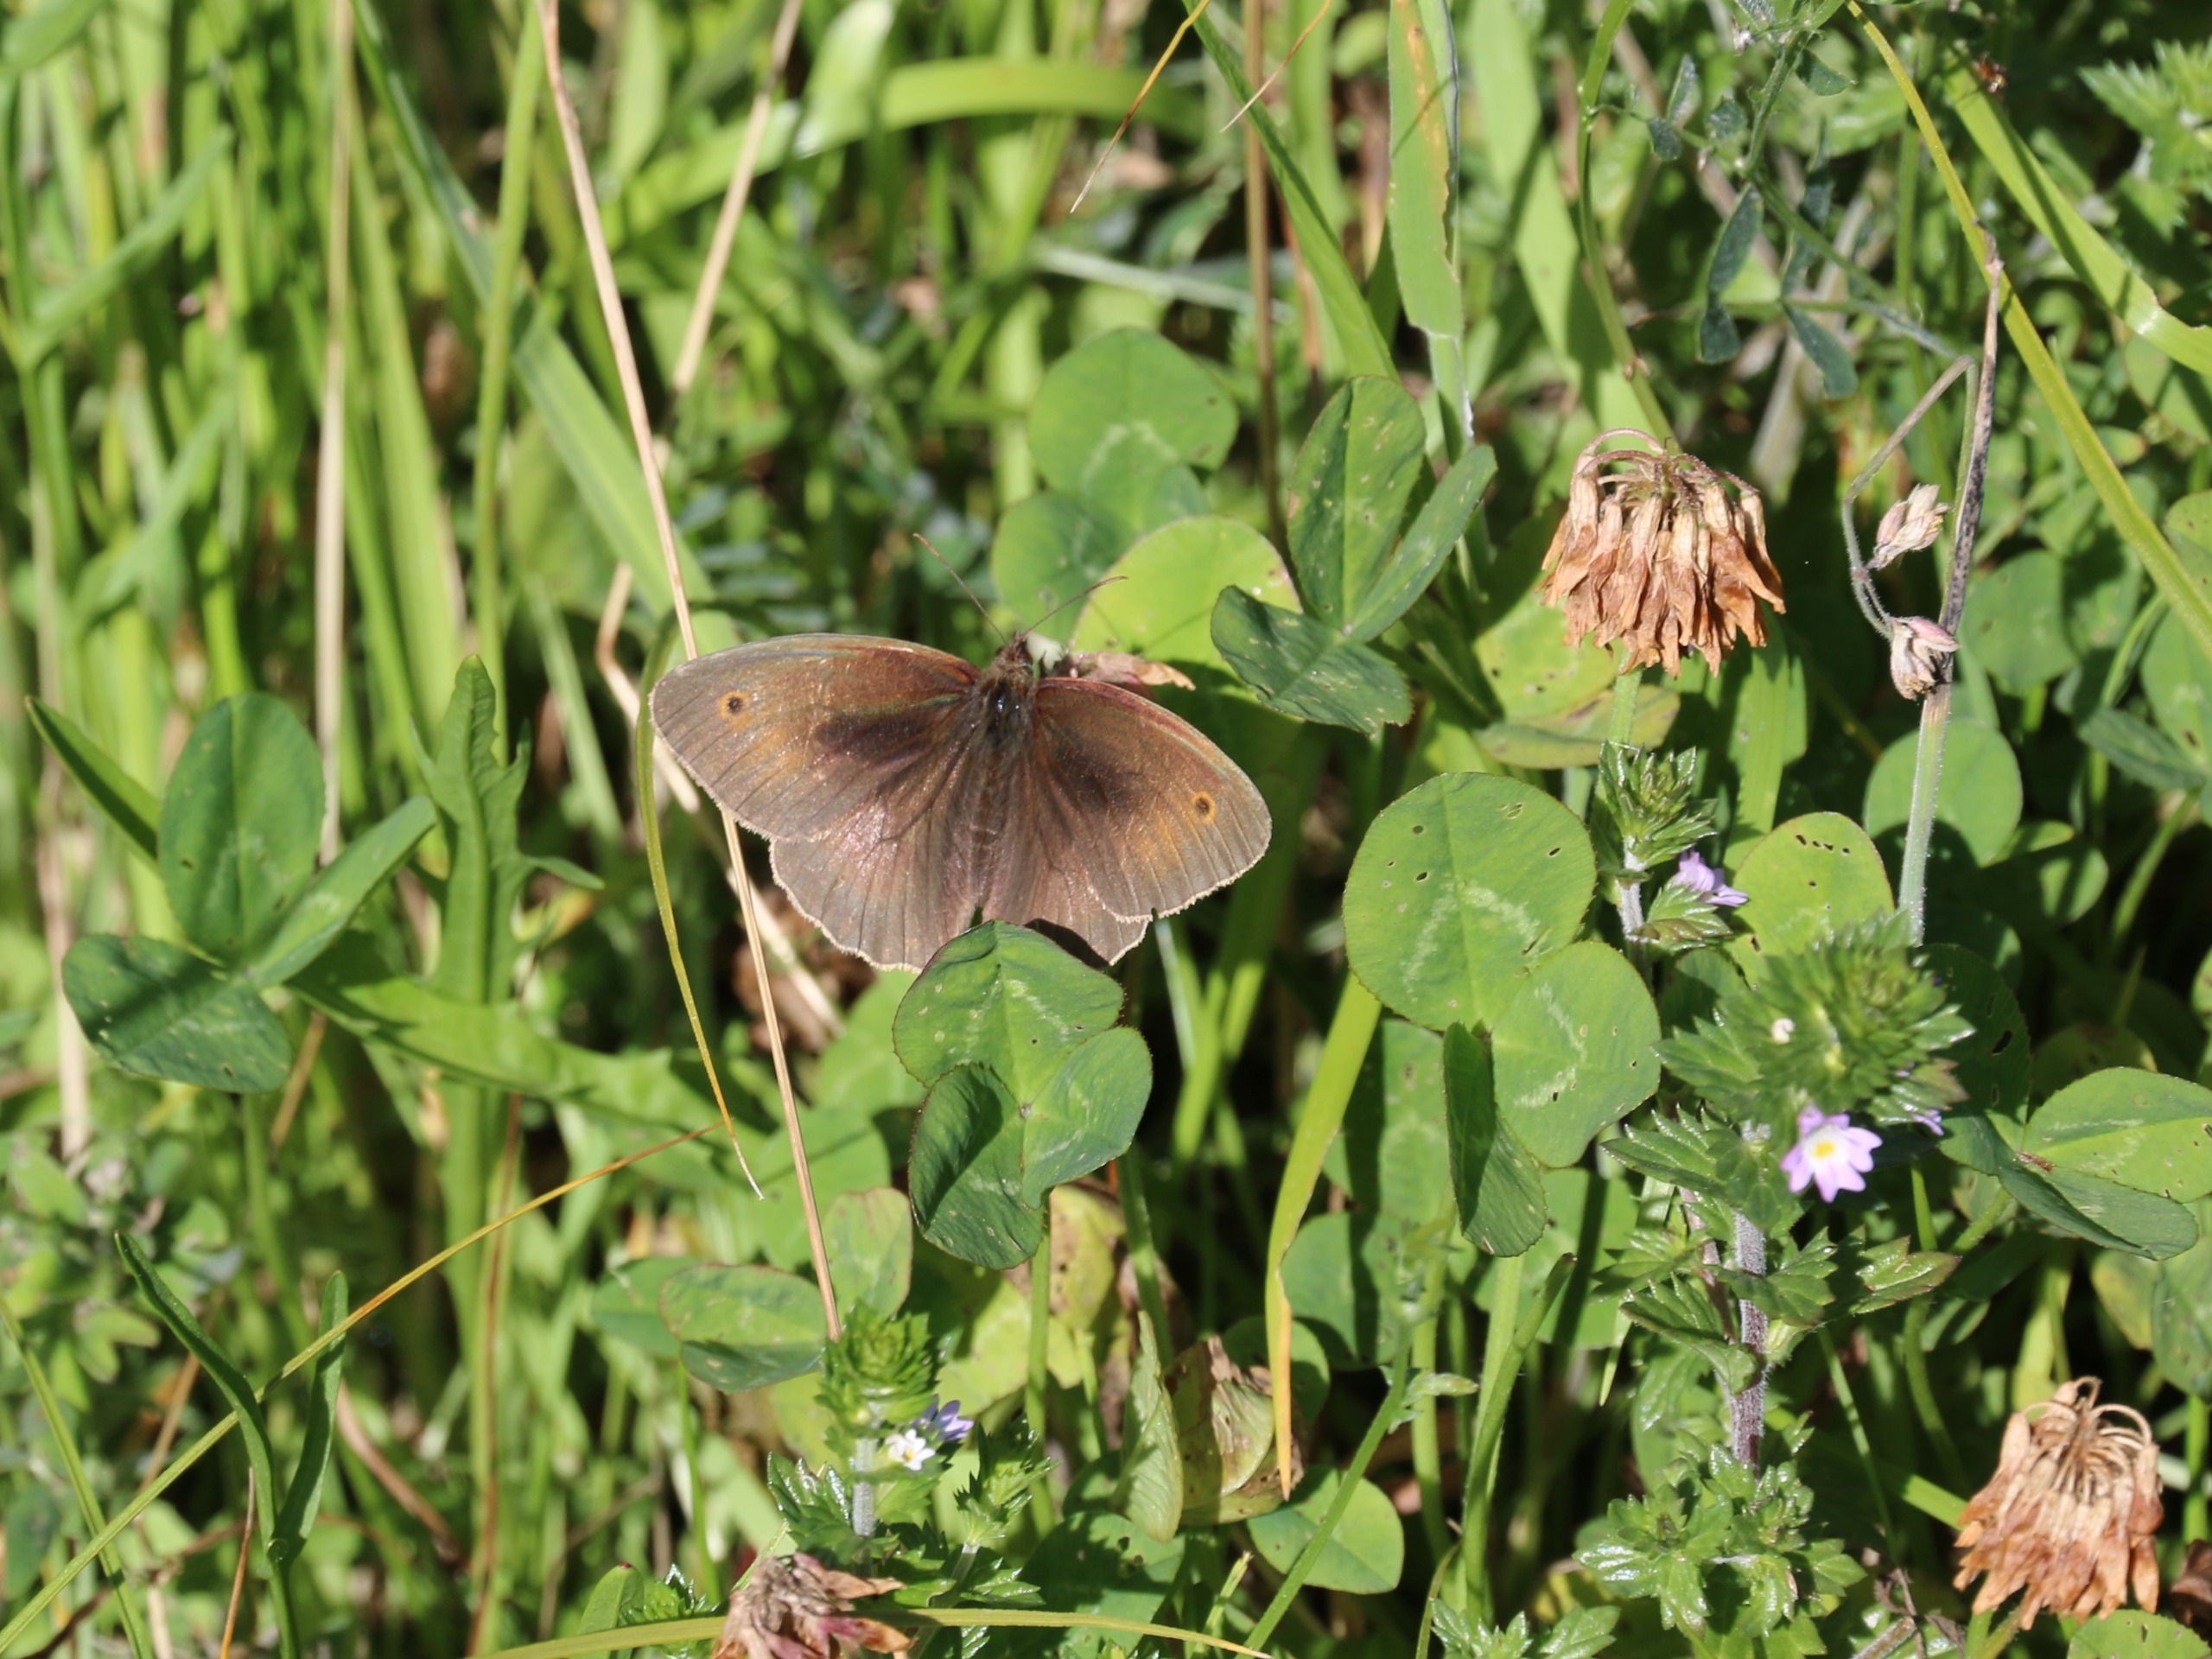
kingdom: Animalia
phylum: Arthropoda
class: Insecta
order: Lepidoptera
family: Nymphalidae
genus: Maniola
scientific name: Maniola jurtina
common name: Græsrandøje
